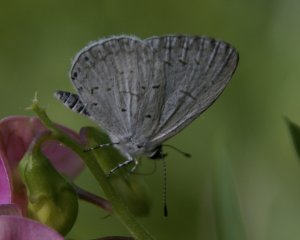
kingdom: Animalia
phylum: Arthropoda
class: Insecta
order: Lepidoptera
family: Lycaenidae
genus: Cyaniris
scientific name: Cyaniris neglecta
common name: Summer Azure
